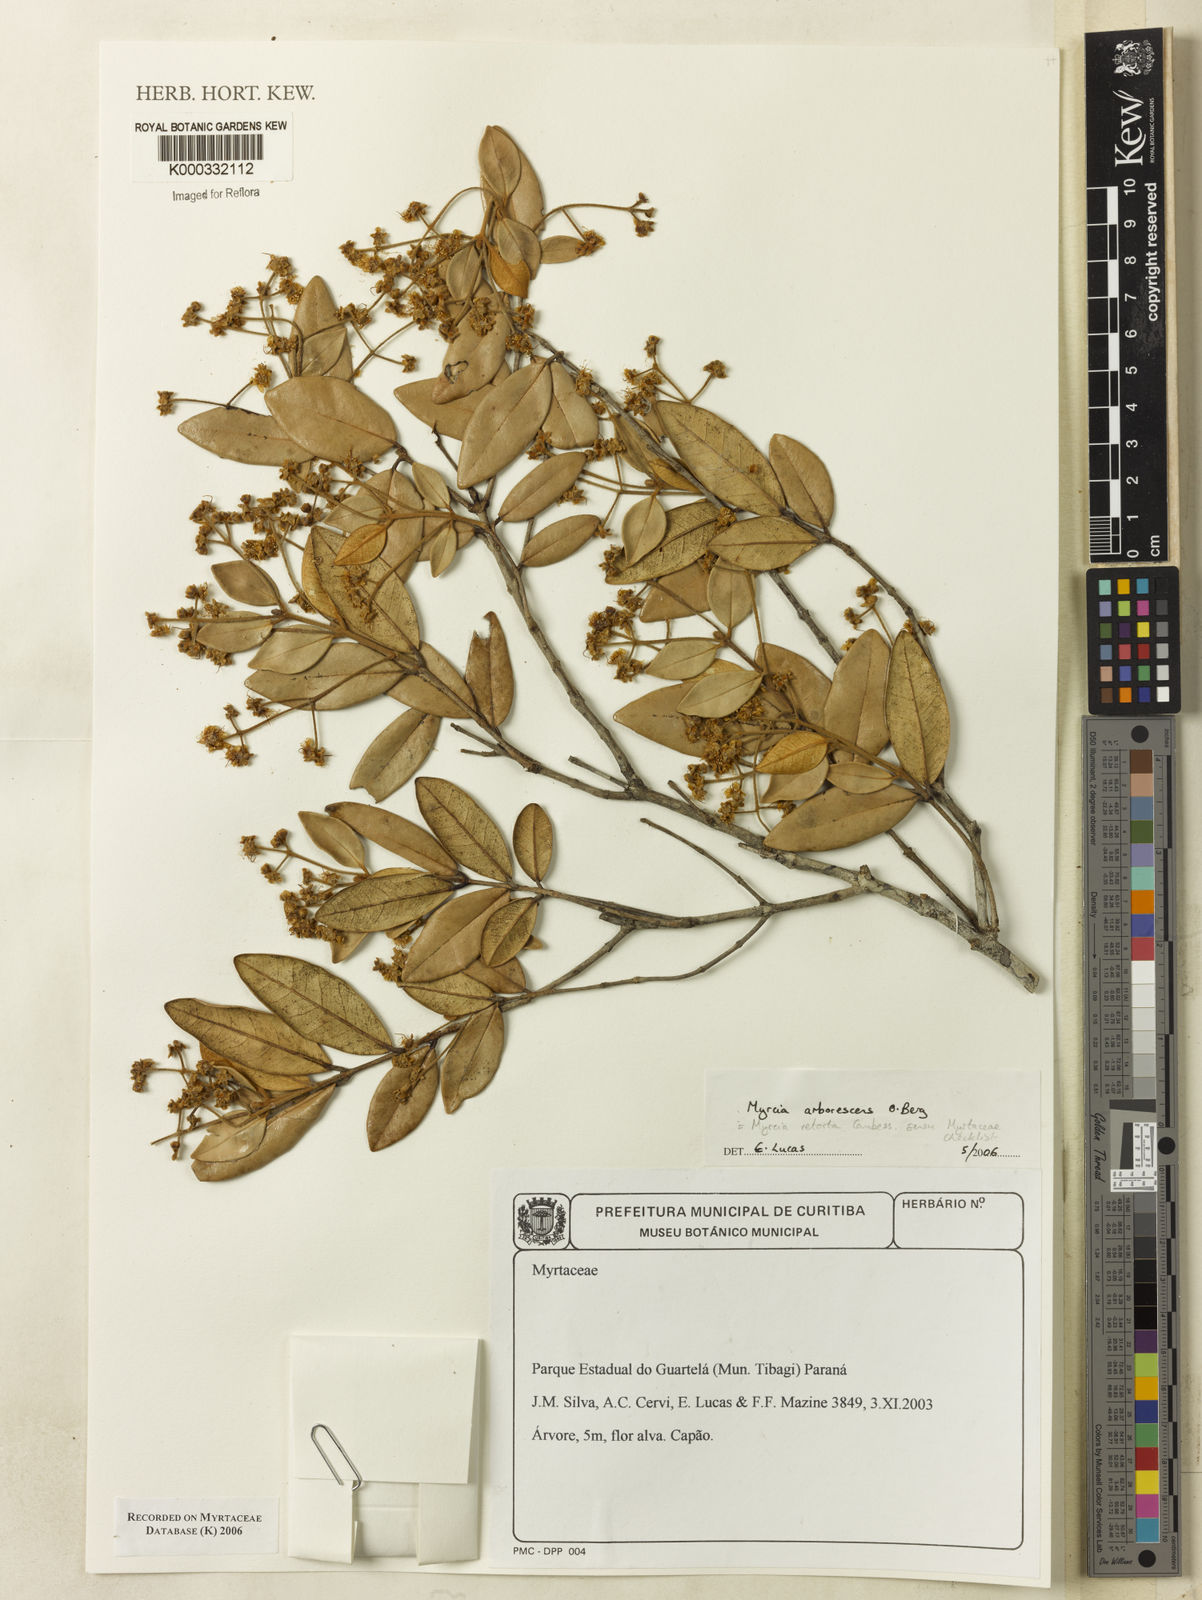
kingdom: Plantae
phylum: Tracheophyta
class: Magnoliopsida
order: Myrtales
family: Myrtaceae
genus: Myrcia
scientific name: Myrcia retorta
